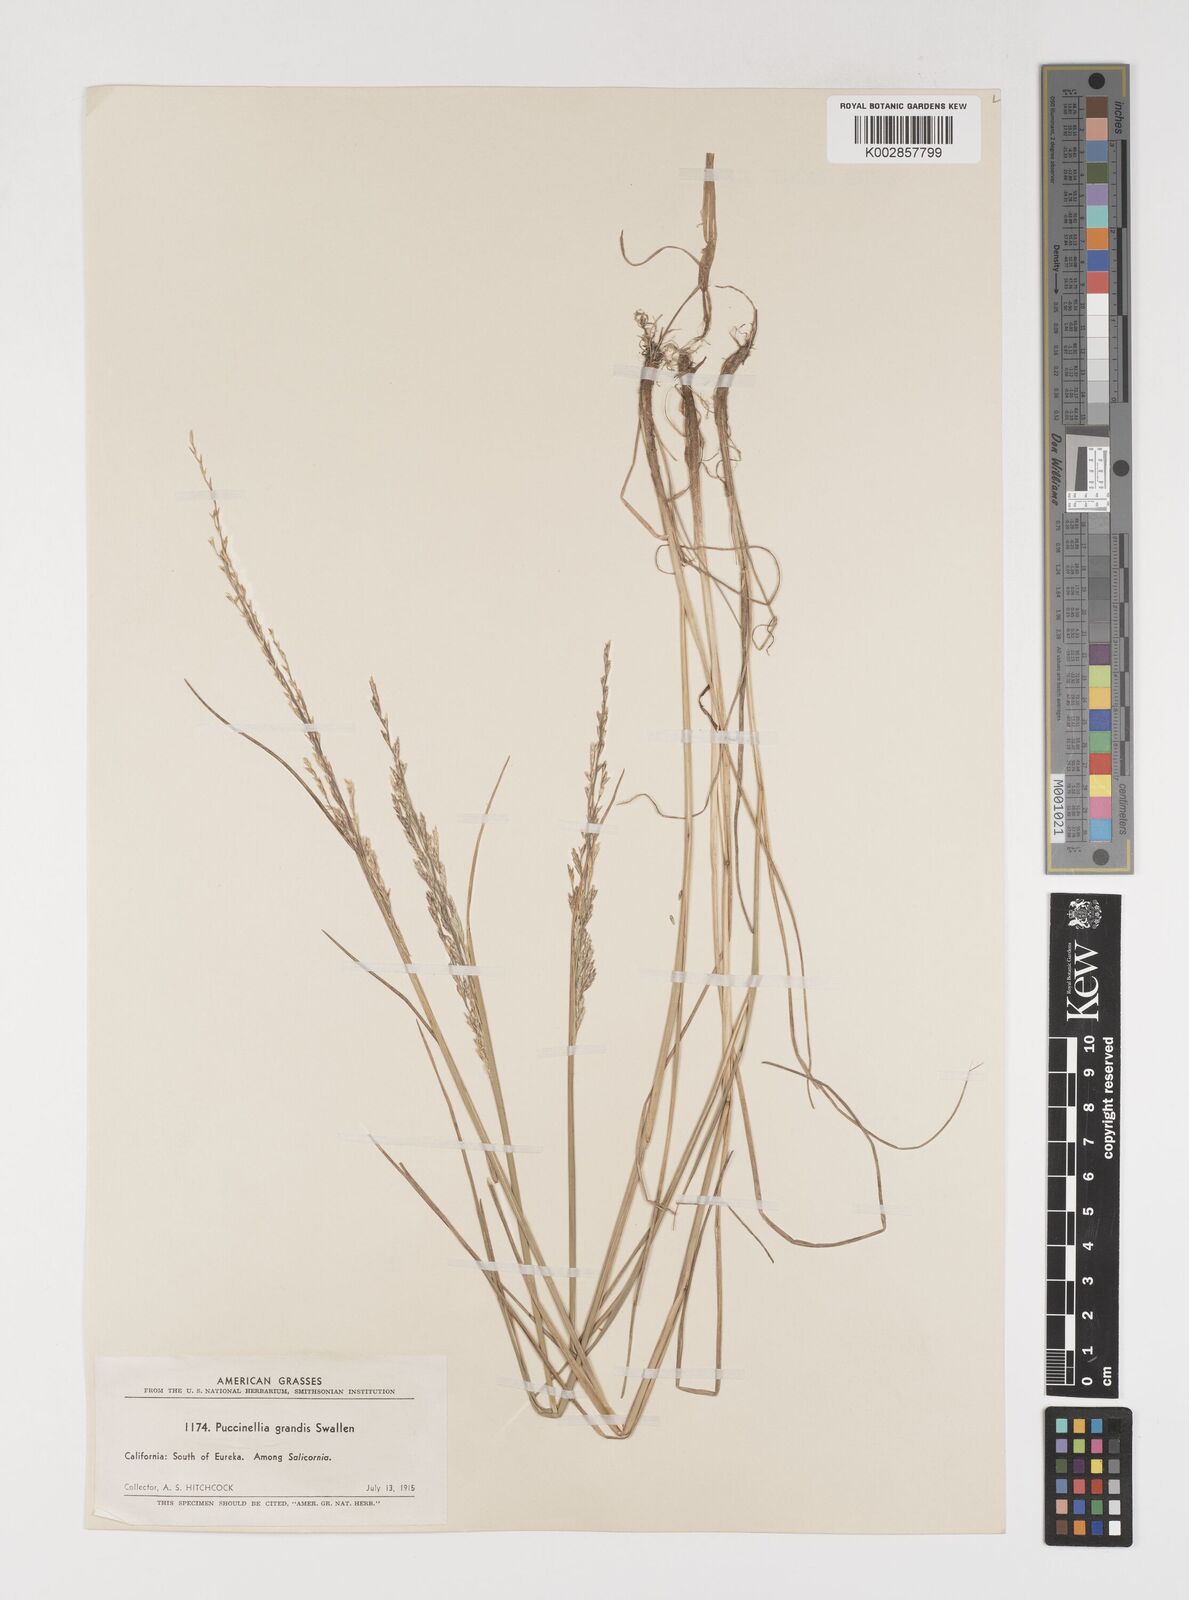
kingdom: Plantae
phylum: Tracheophyta
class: Liliopsida
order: Poales
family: Poaceae
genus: Puccinellia
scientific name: Puccinellia nutkaensis
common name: Nootka alkaligrass
